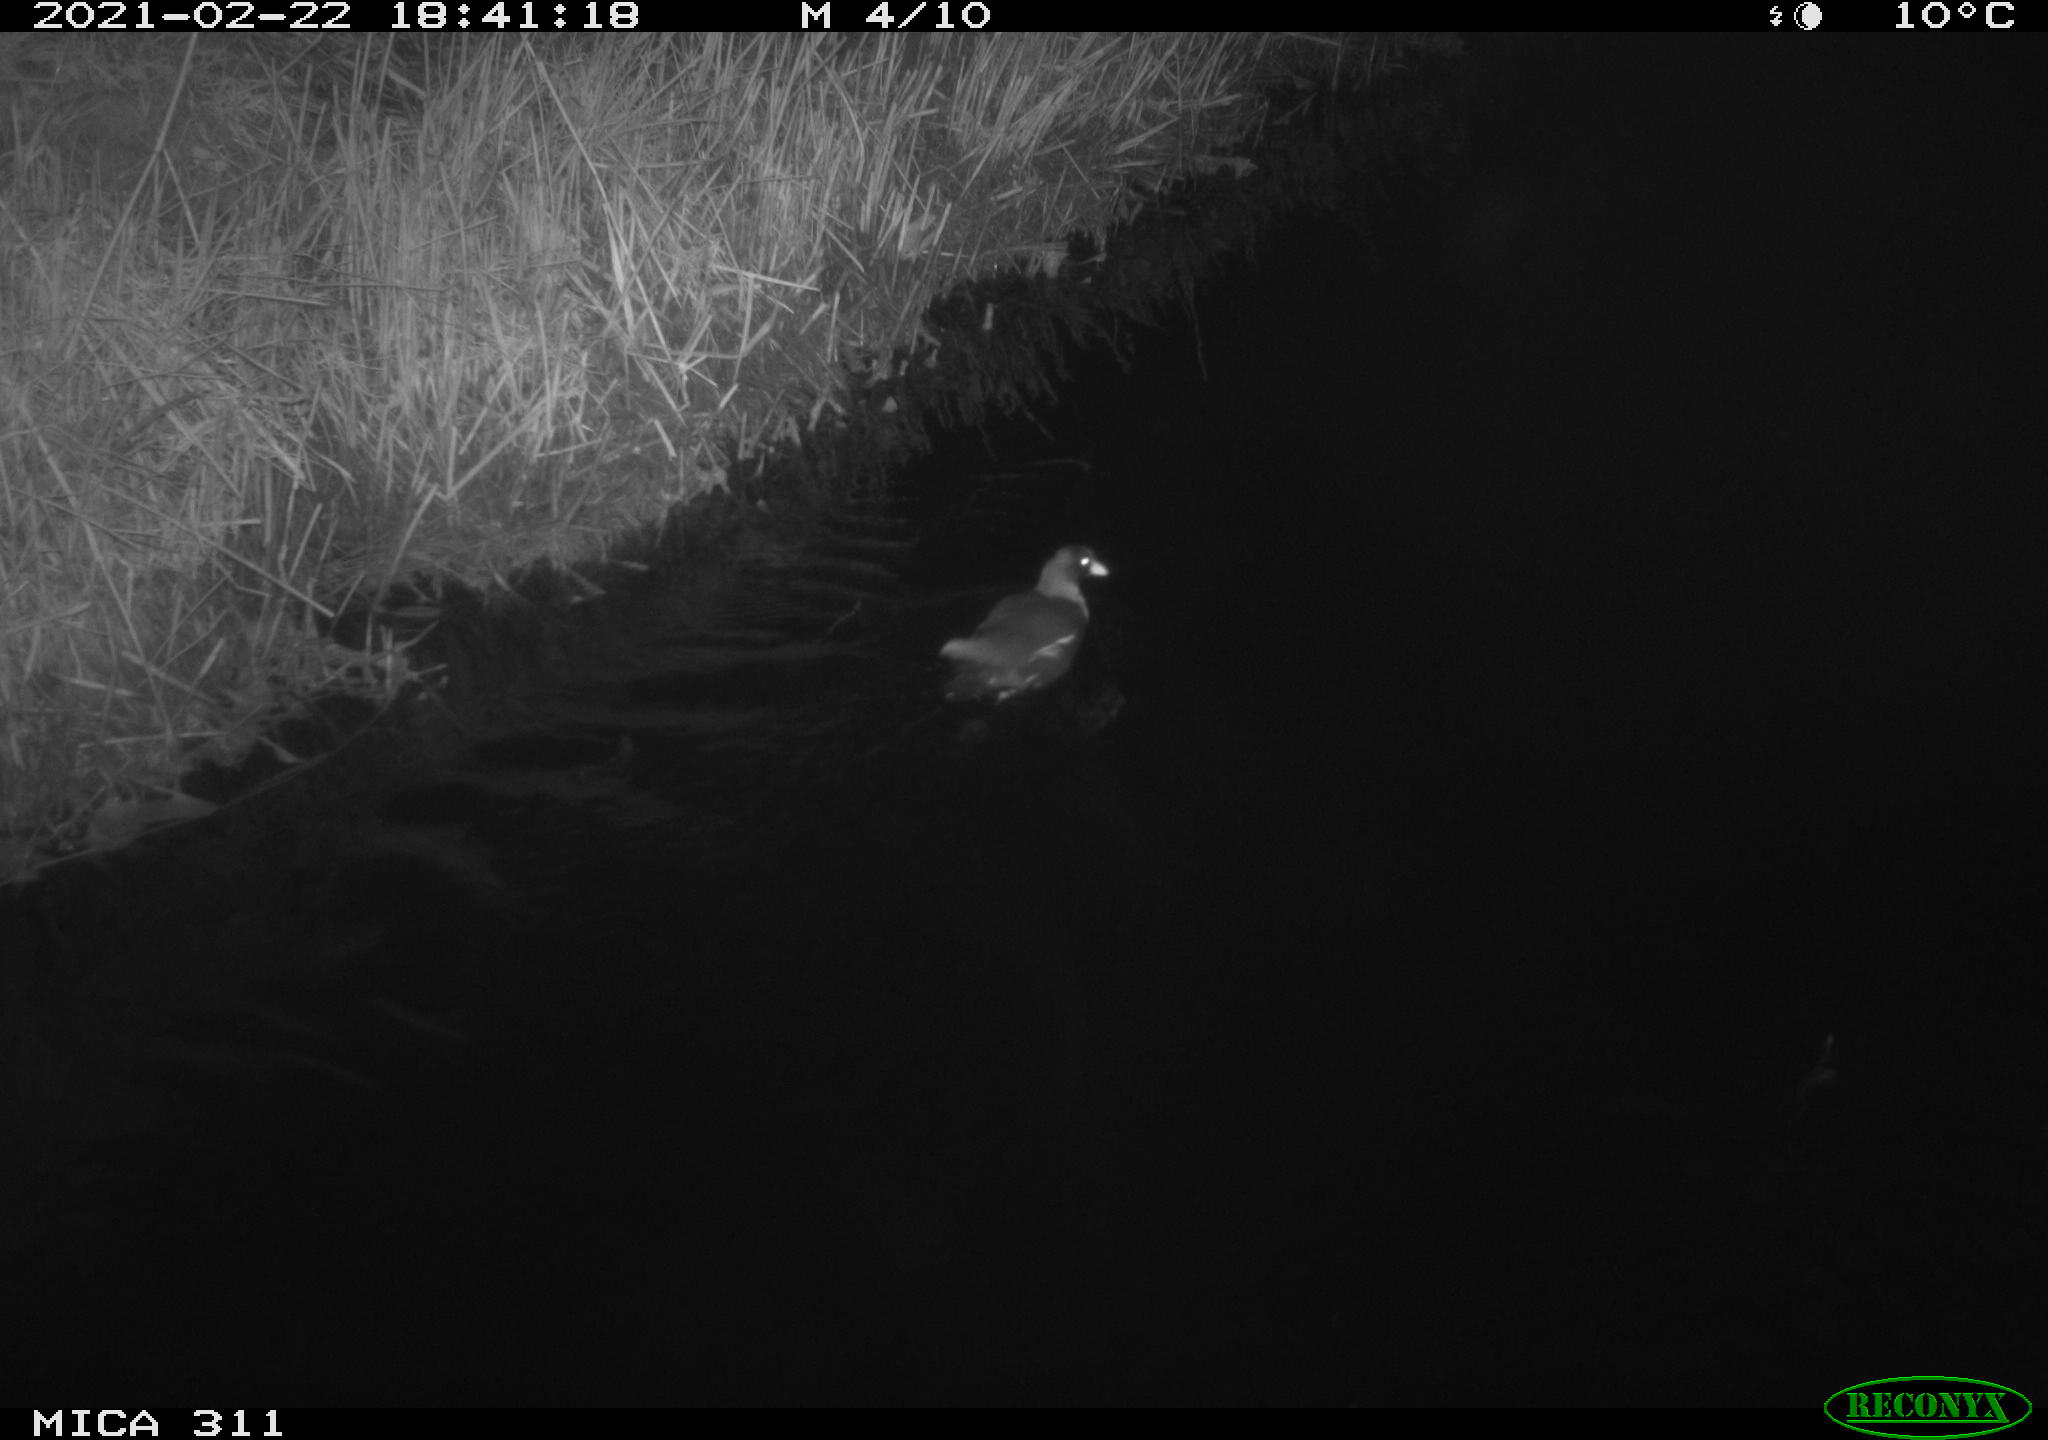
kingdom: Animalia
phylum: Chordata
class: Aves
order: Gruiformes
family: Rallidae
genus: Gallinula
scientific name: Gallinula chloropus
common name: Common moorhen
